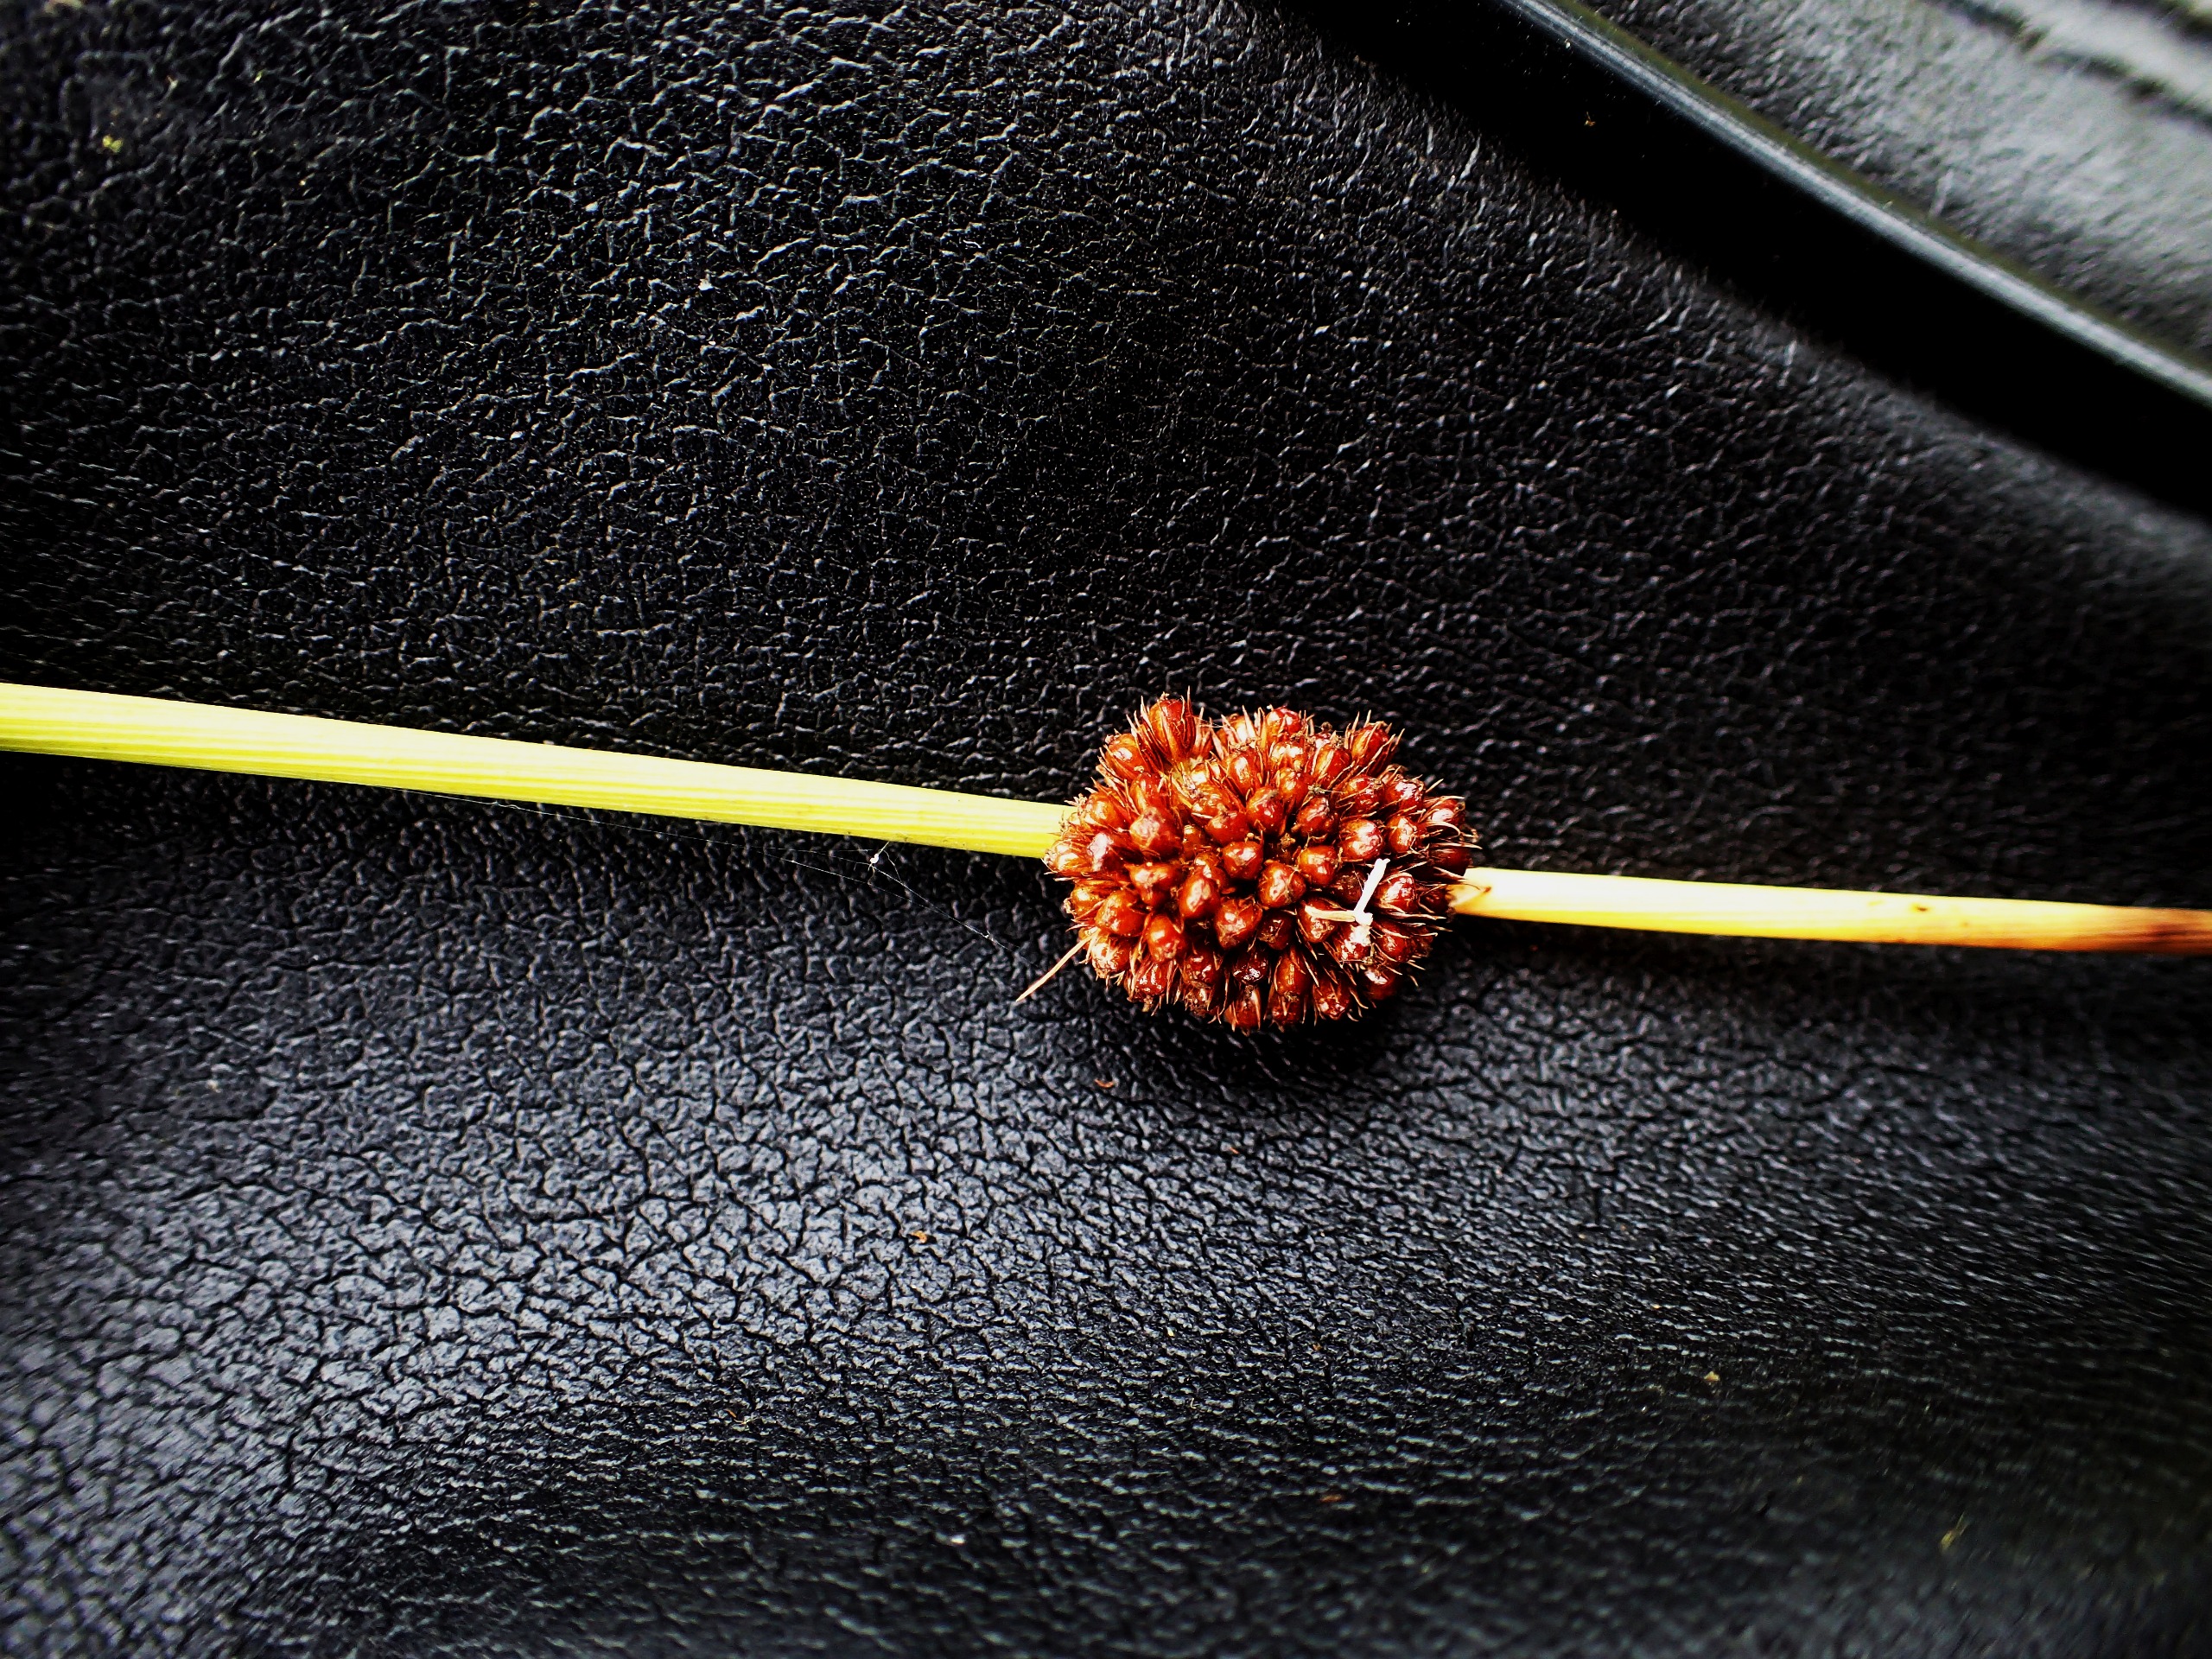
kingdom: Plantae
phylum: Tracheophyta
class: Liliopsida
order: Poales
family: Juncaceae
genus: Juncus
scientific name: Juncus conglomeratus
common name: Knop-siv
